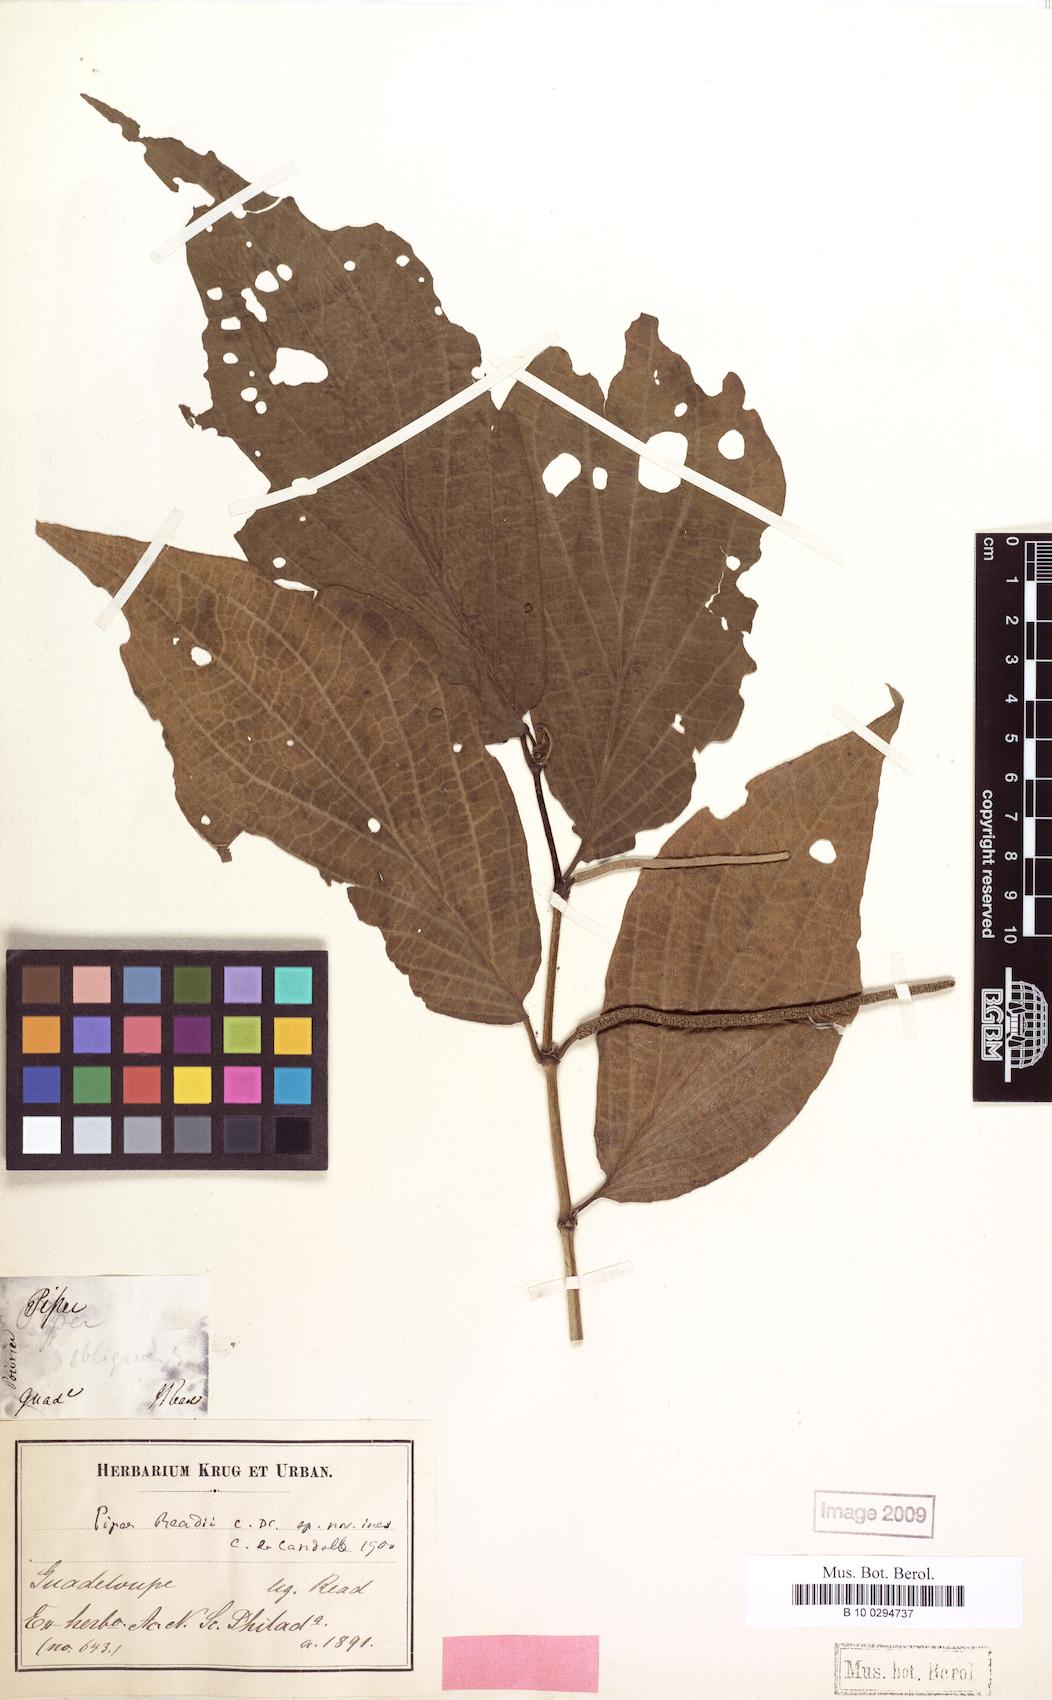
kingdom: Plantae
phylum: Tracheophyta
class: Magnoliopsida
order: Piperales
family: Piperaceae
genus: Piper
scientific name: Piper dilatatum
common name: Higuillo
